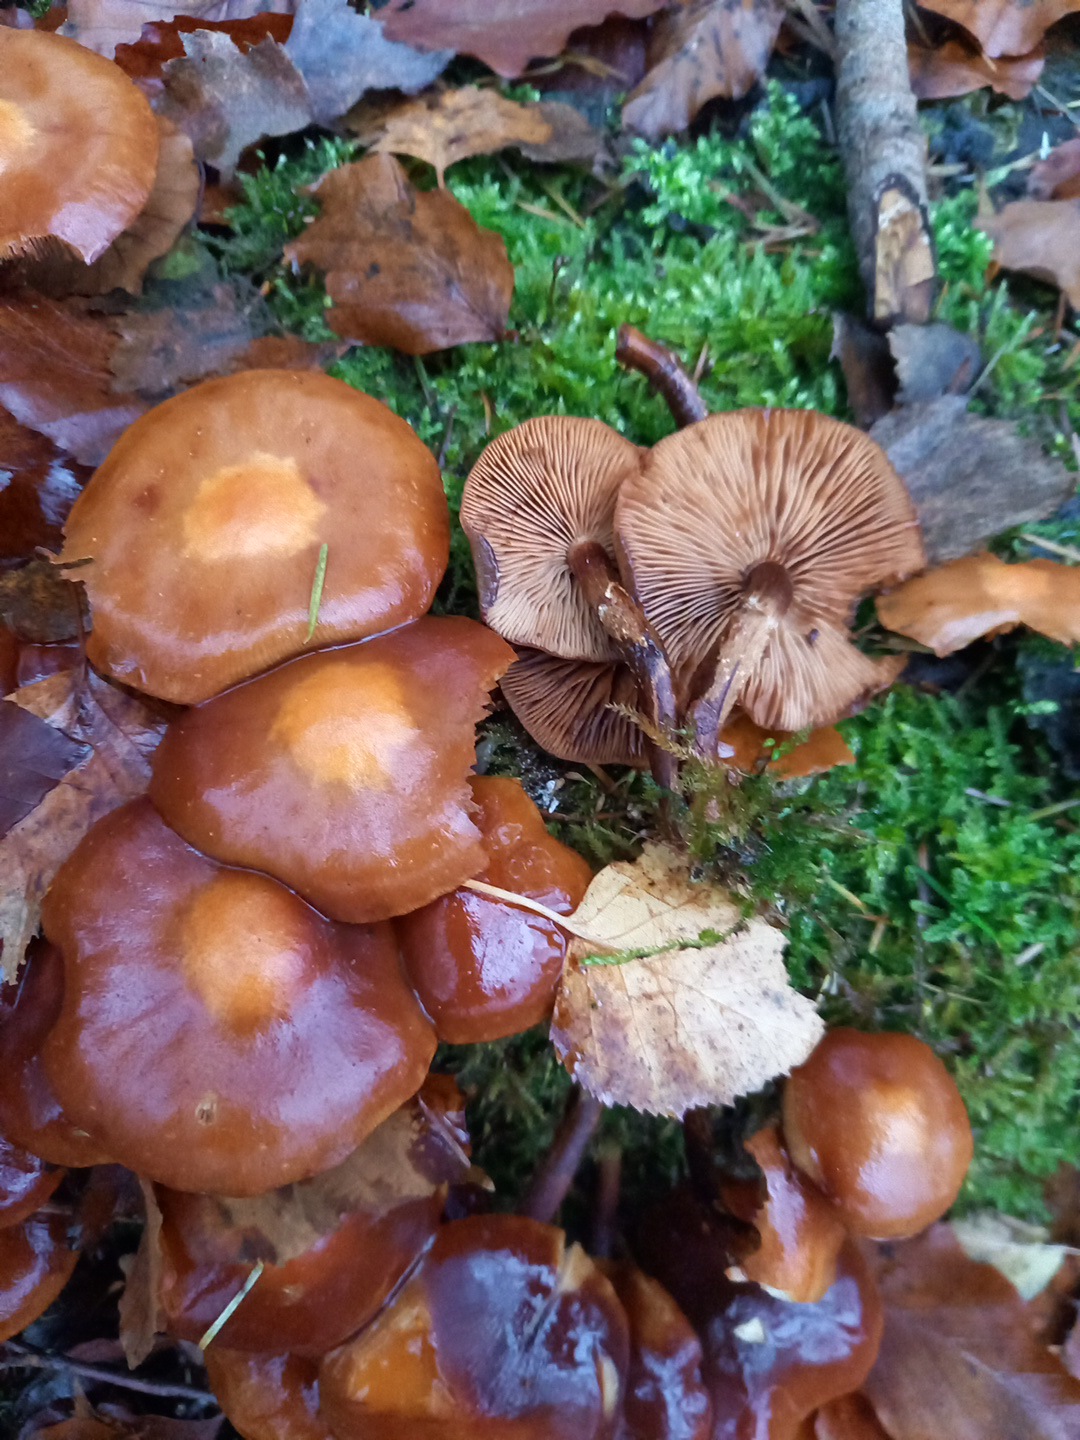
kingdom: Fungi
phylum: Basidiomycota
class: Agaricomycetes
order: Agaricales
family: Strophariaceae
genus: Kuehneromyces
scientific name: Kuehneromyces mutabilis
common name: foranderlig skælhat
